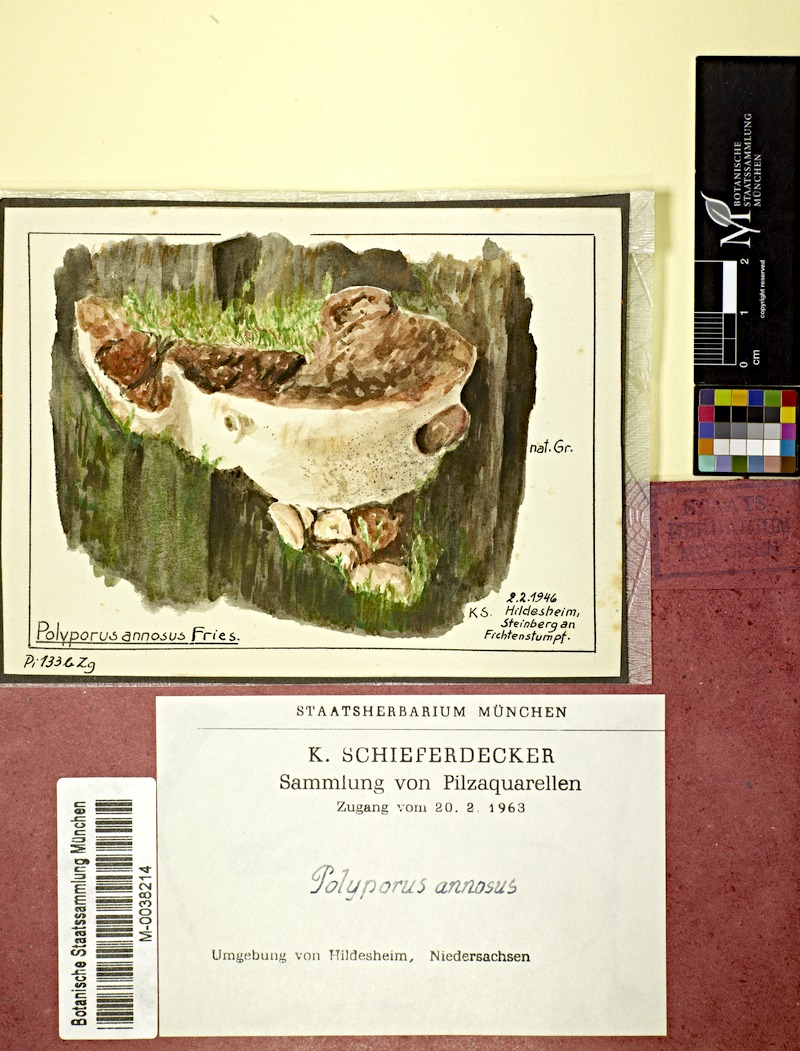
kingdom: Fungi
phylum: Basidiomycota
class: Agaricomycetes
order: Russulales
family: Bondarzewiaceae
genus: Heterobasidion
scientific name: Heterobasidion annosum
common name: Root rot
